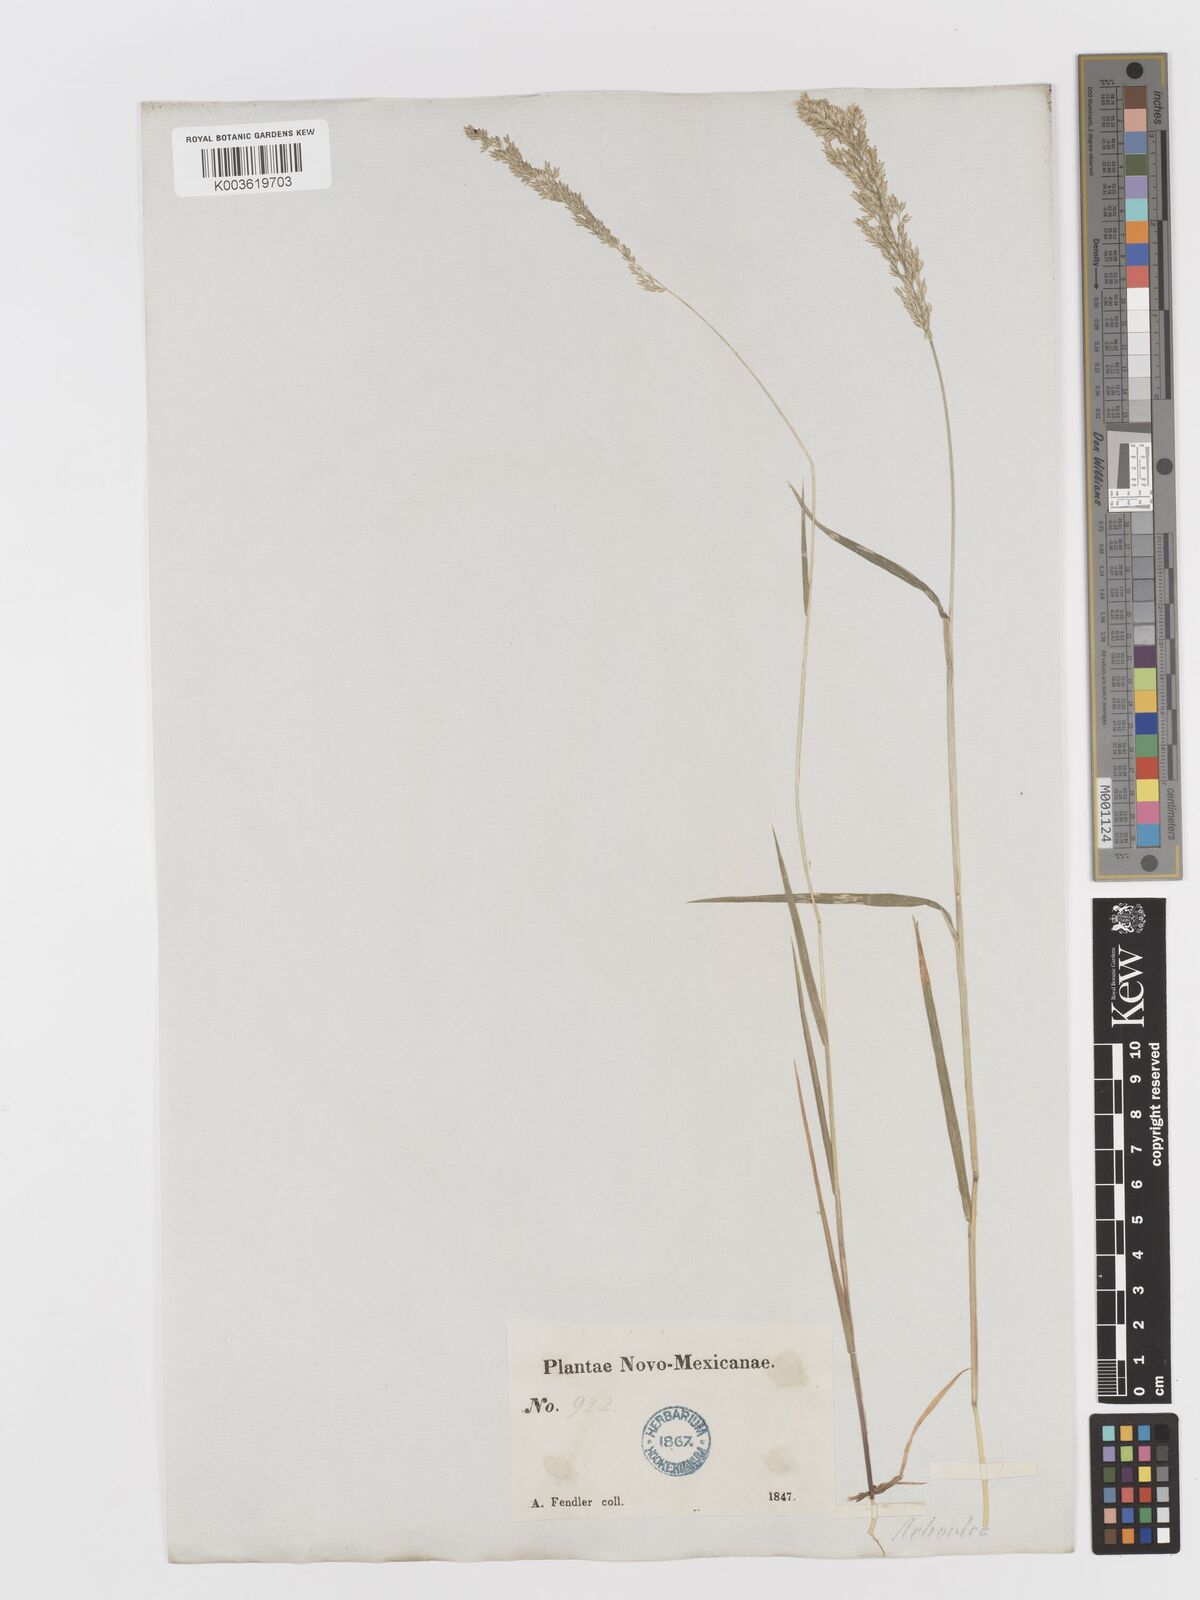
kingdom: Plantae
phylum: Tracheophyta
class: Liliopsida
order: Poales
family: Poaceae
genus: Sphenopholis
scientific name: Sphenopholis obtusata
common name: Prairie grass
